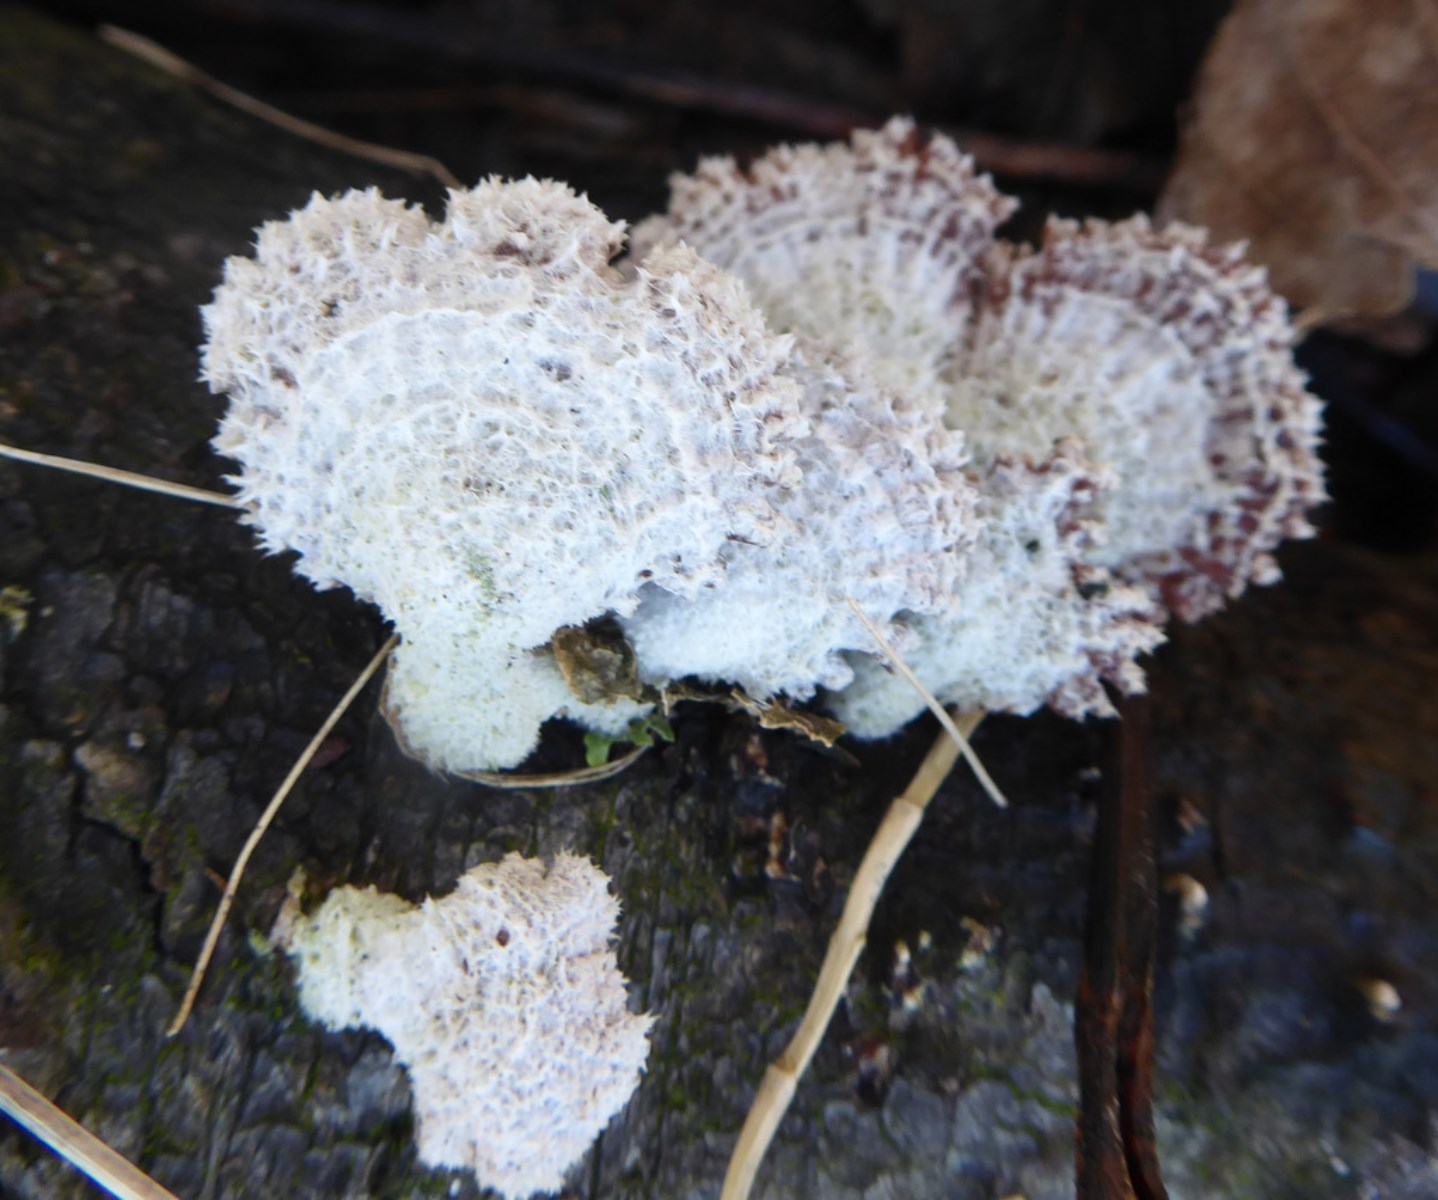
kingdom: Fungi
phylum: Basidiomycota
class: Agaricomycetes
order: Agaricales
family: Schizophyllaceae
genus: Schizophyllum
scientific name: Schizophyllum commune
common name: kløvblad
